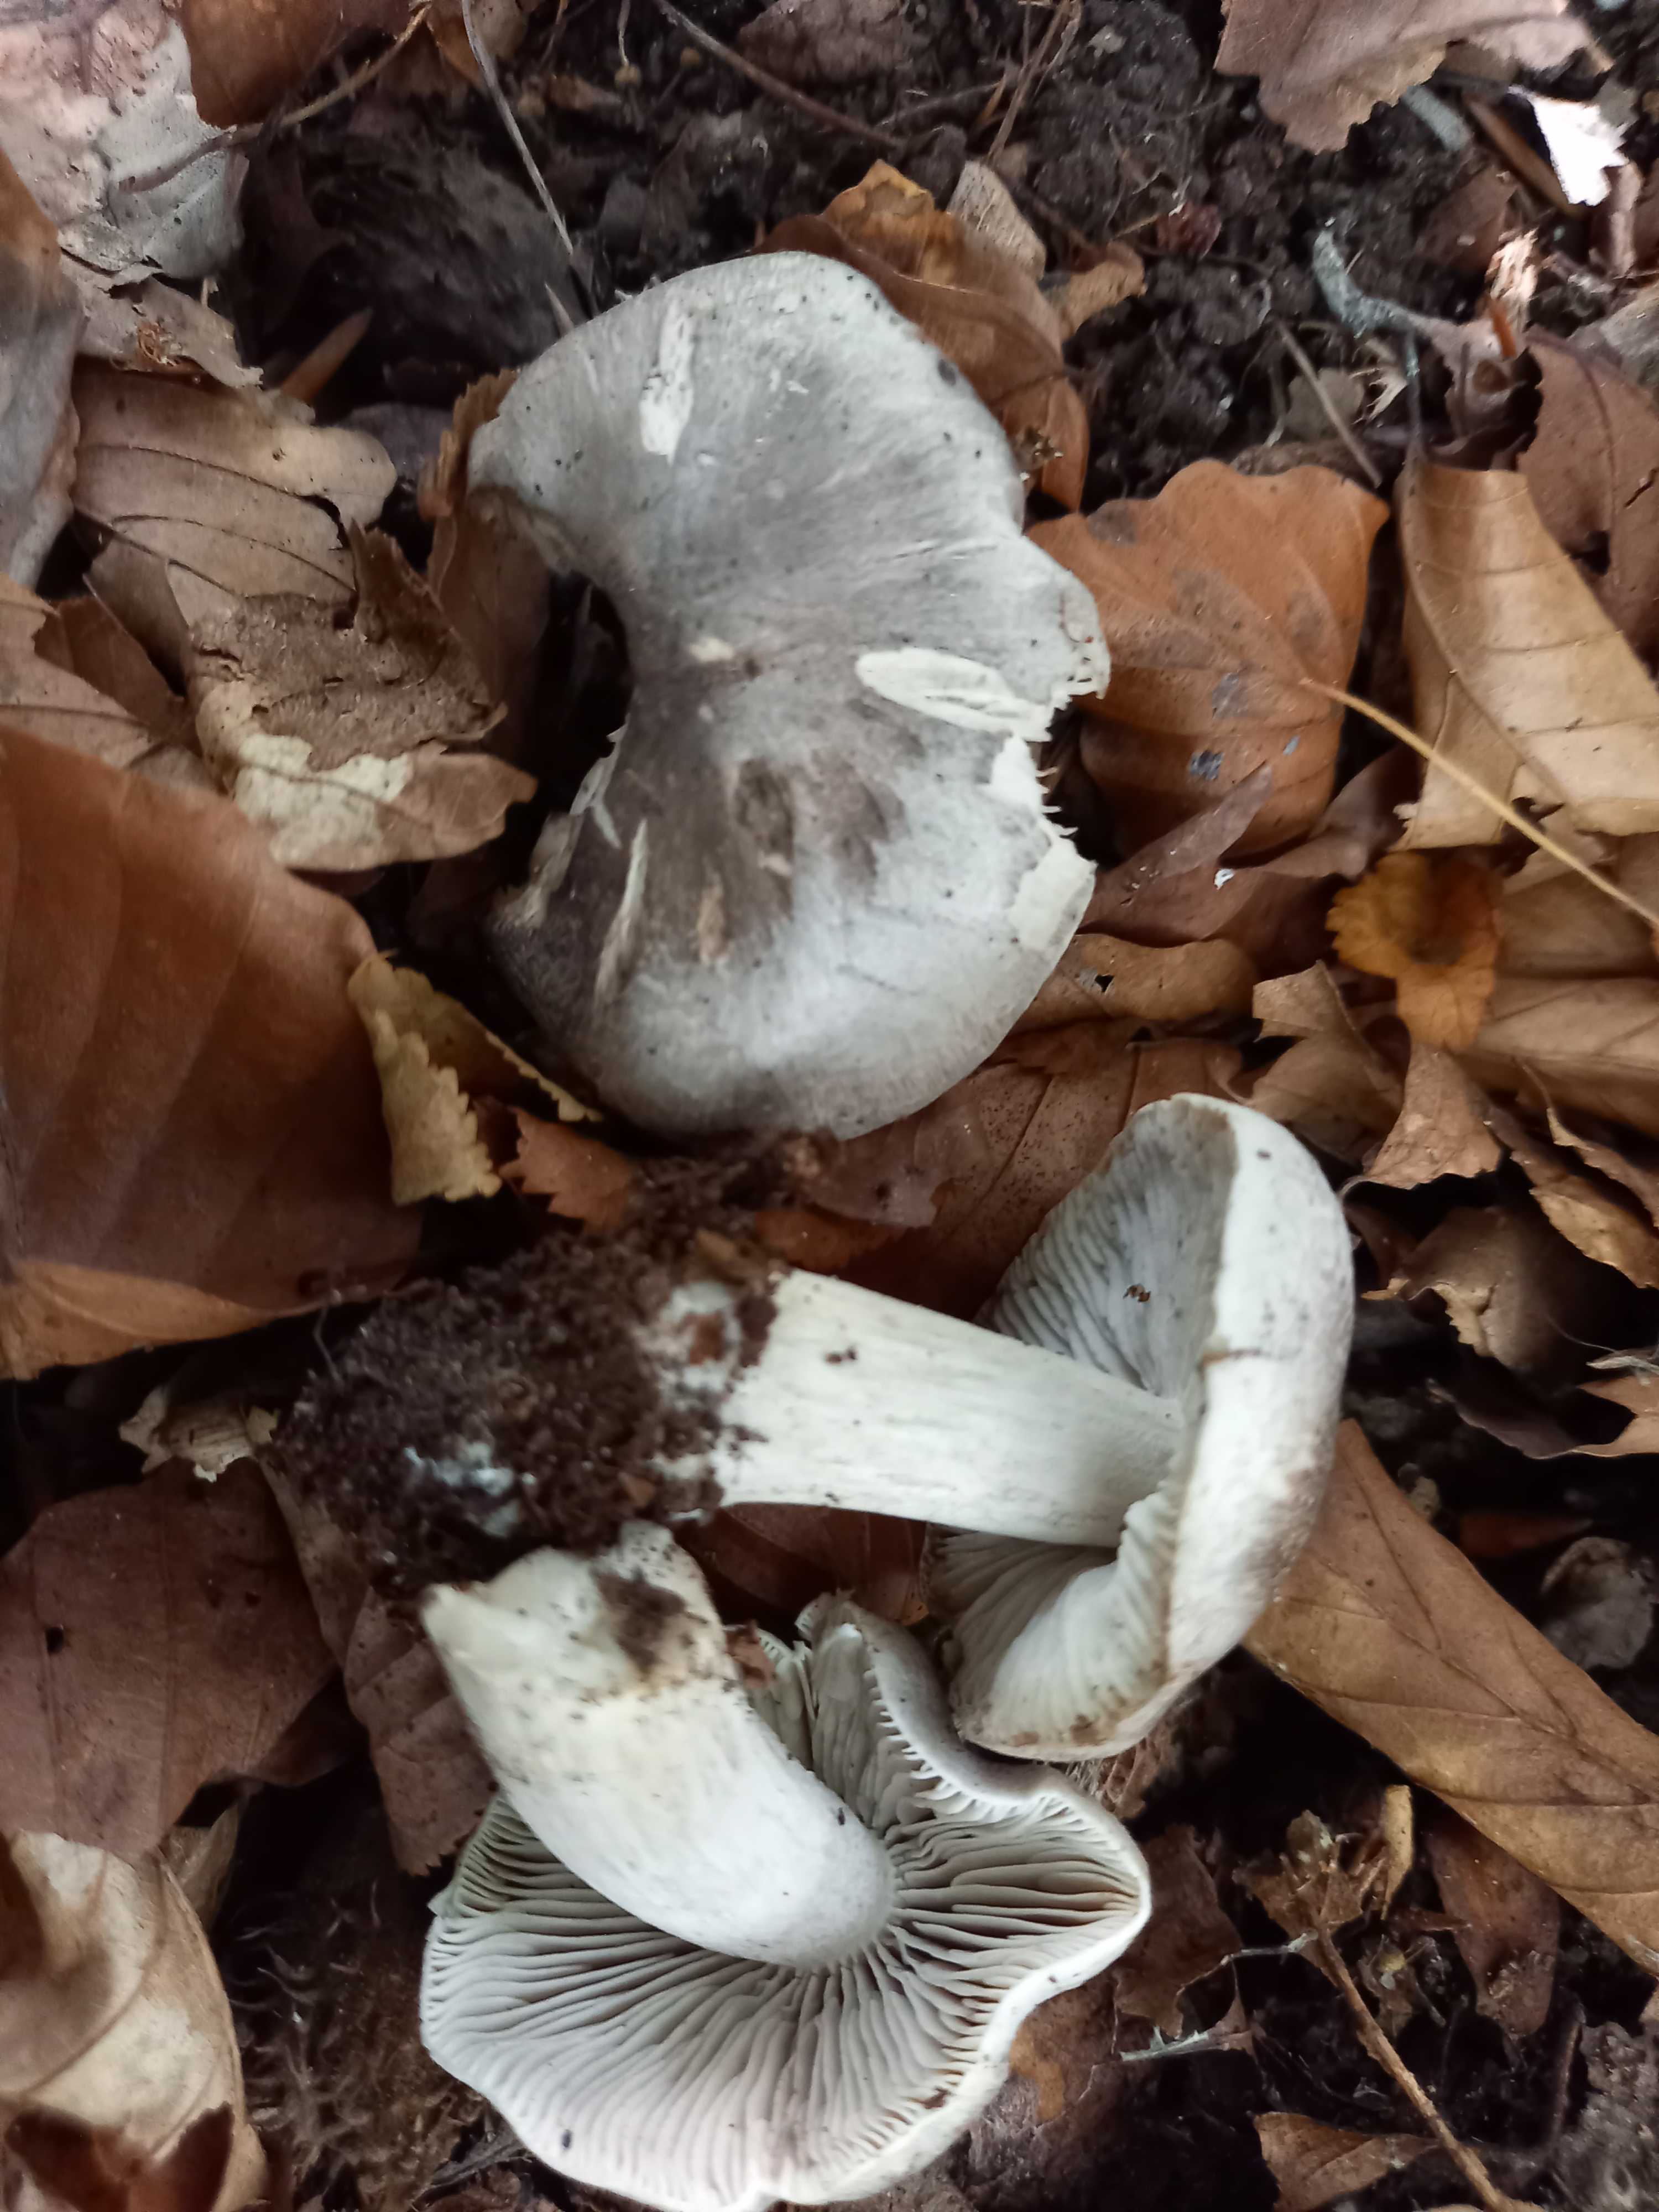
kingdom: Fungi
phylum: Basidiomycota
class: Agaricomycetes
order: Agaricales
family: Tricholomataceae
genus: Tricholoma
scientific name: Tricholoma sciodes
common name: stribet ridderhat
